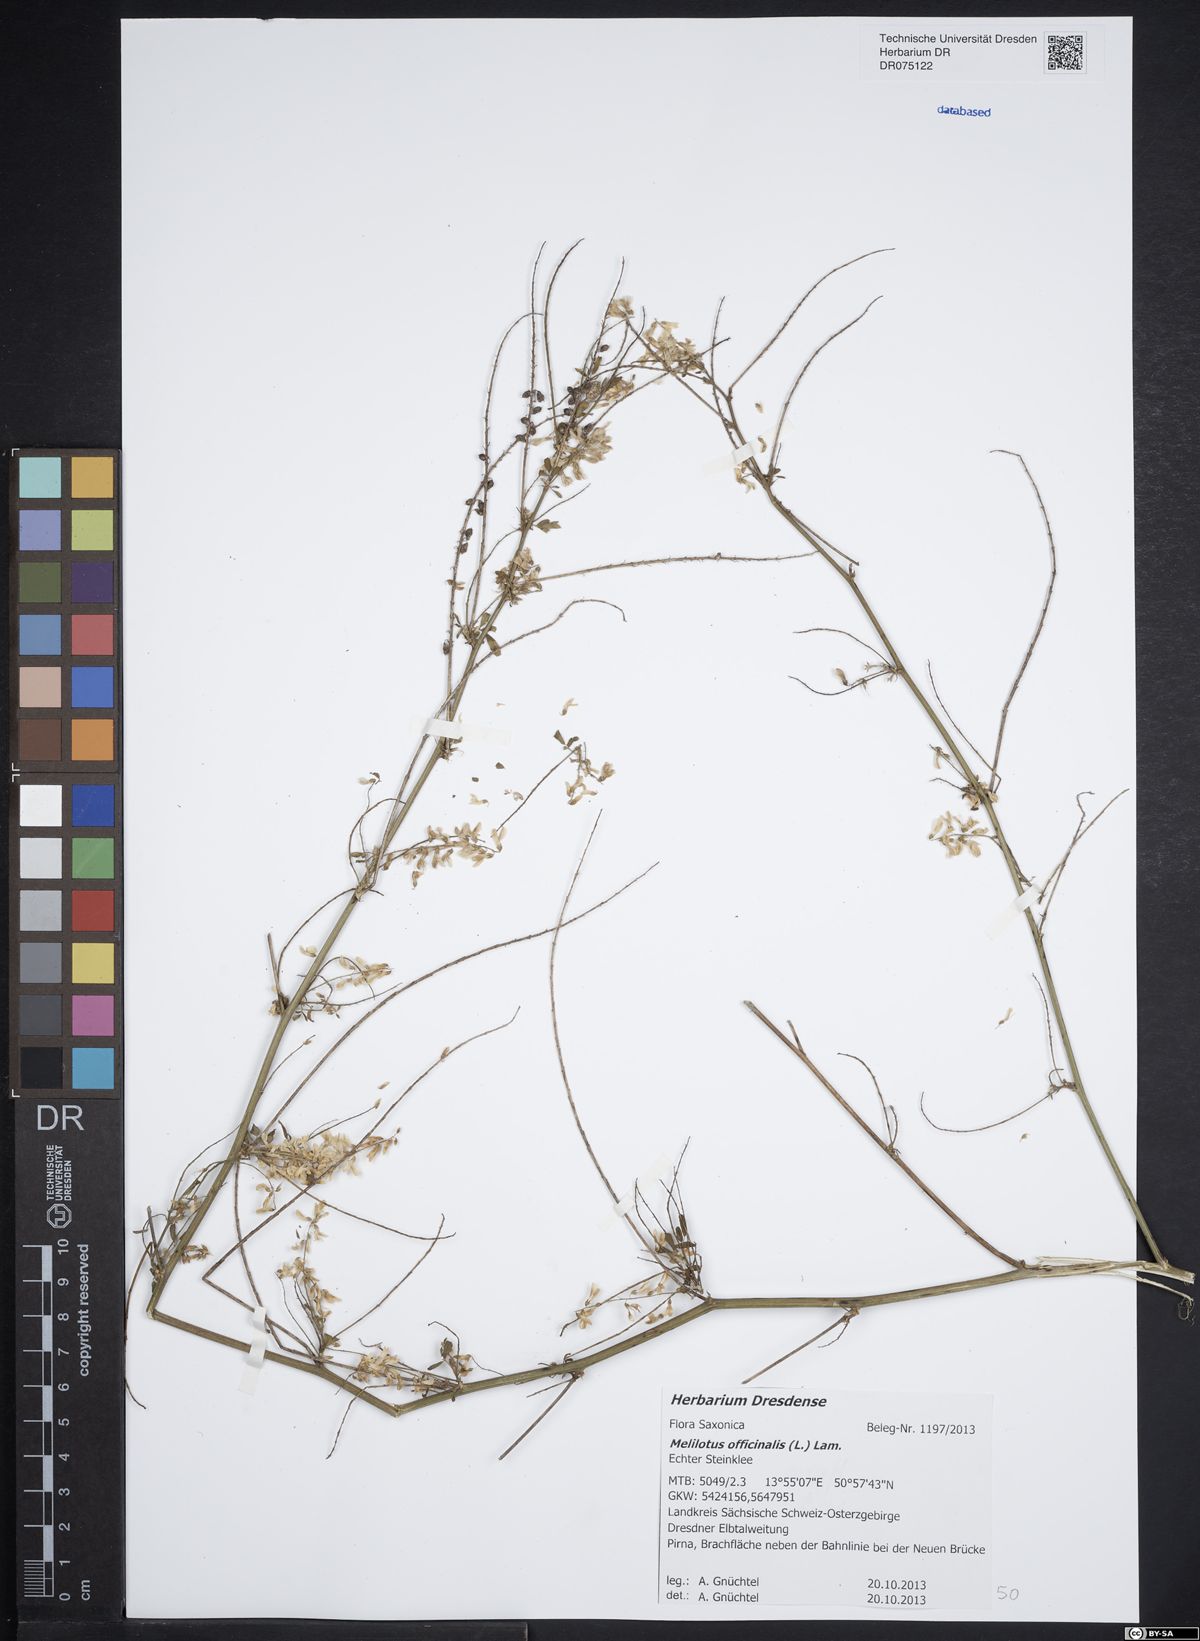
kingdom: Plantae
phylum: Tracheophyta
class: Magnoliopsida
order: Fabales
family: Fabaceae
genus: Melilotus
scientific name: Melilotus officinalis
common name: Sweetclover
